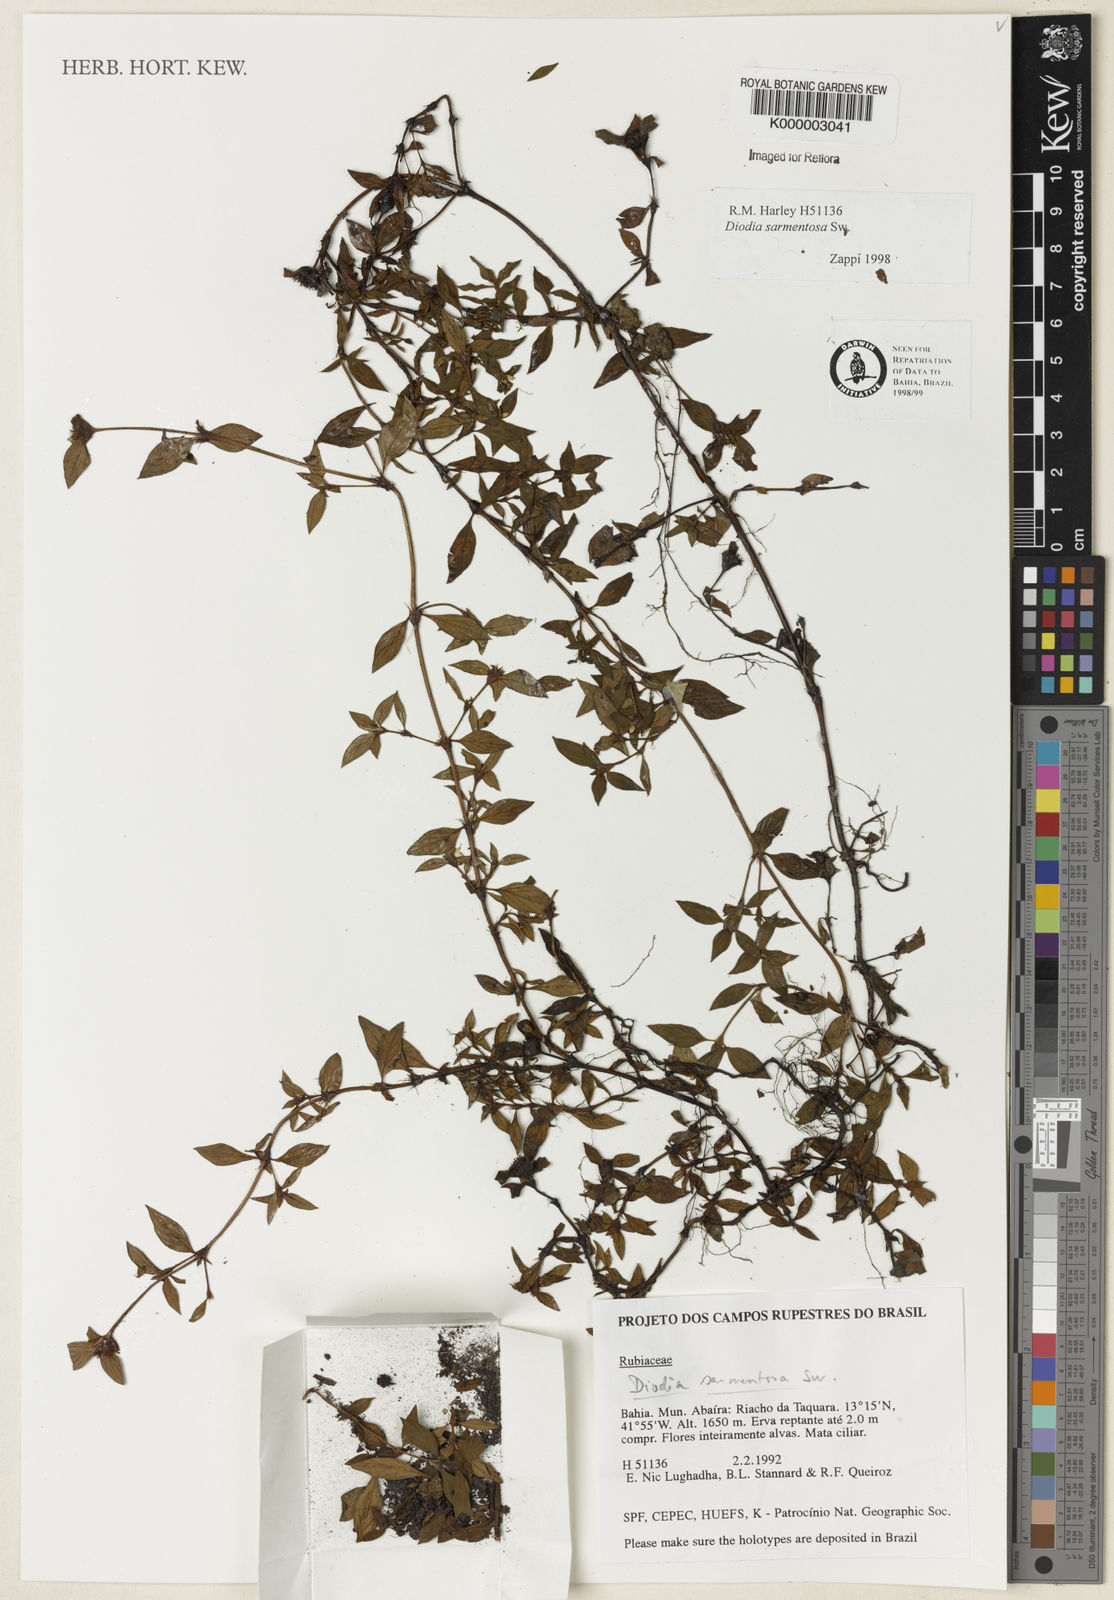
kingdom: Plantae
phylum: Tracheophyta
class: Magnoliopsida
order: Gentianales
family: Rubiaceae
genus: Hexasepalum
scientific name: Hexasepalum sarmentosum
